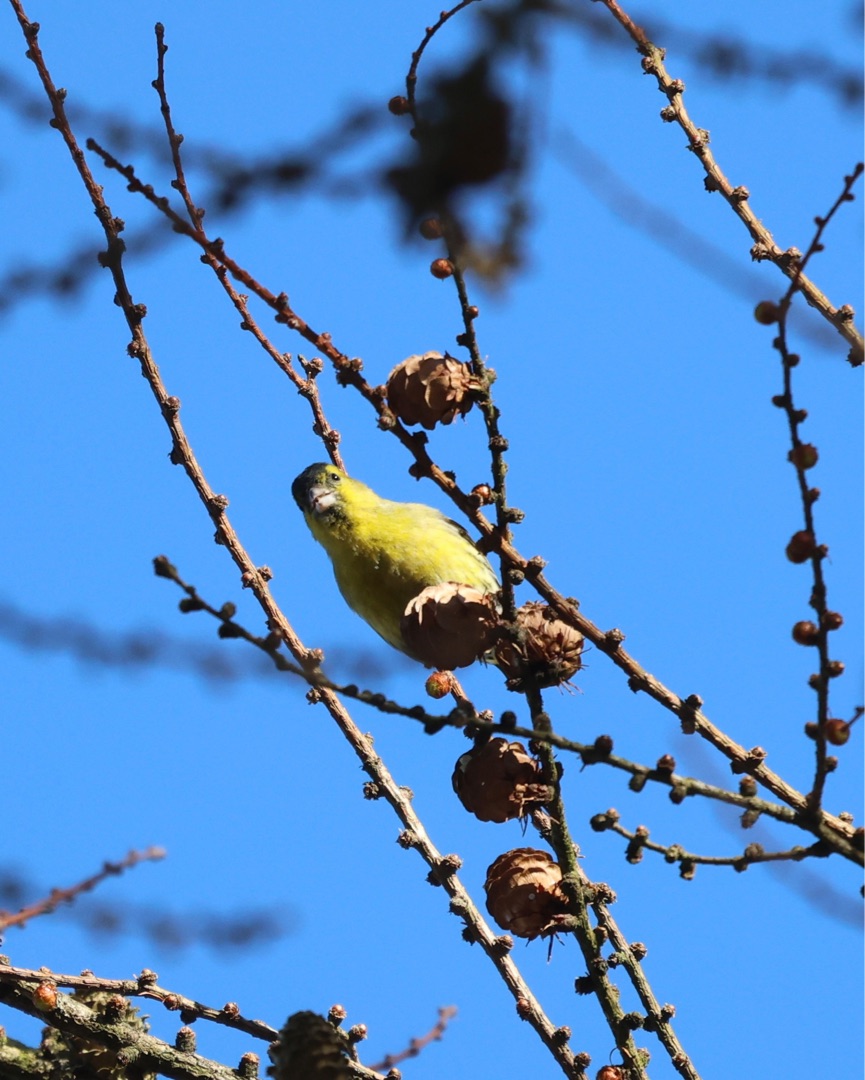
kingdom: Animalia
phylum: Chordata
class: Aves
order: Passeriformes
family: Fringillidae
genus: Spinus
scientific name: Spinus spinus
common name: Grønsisken
